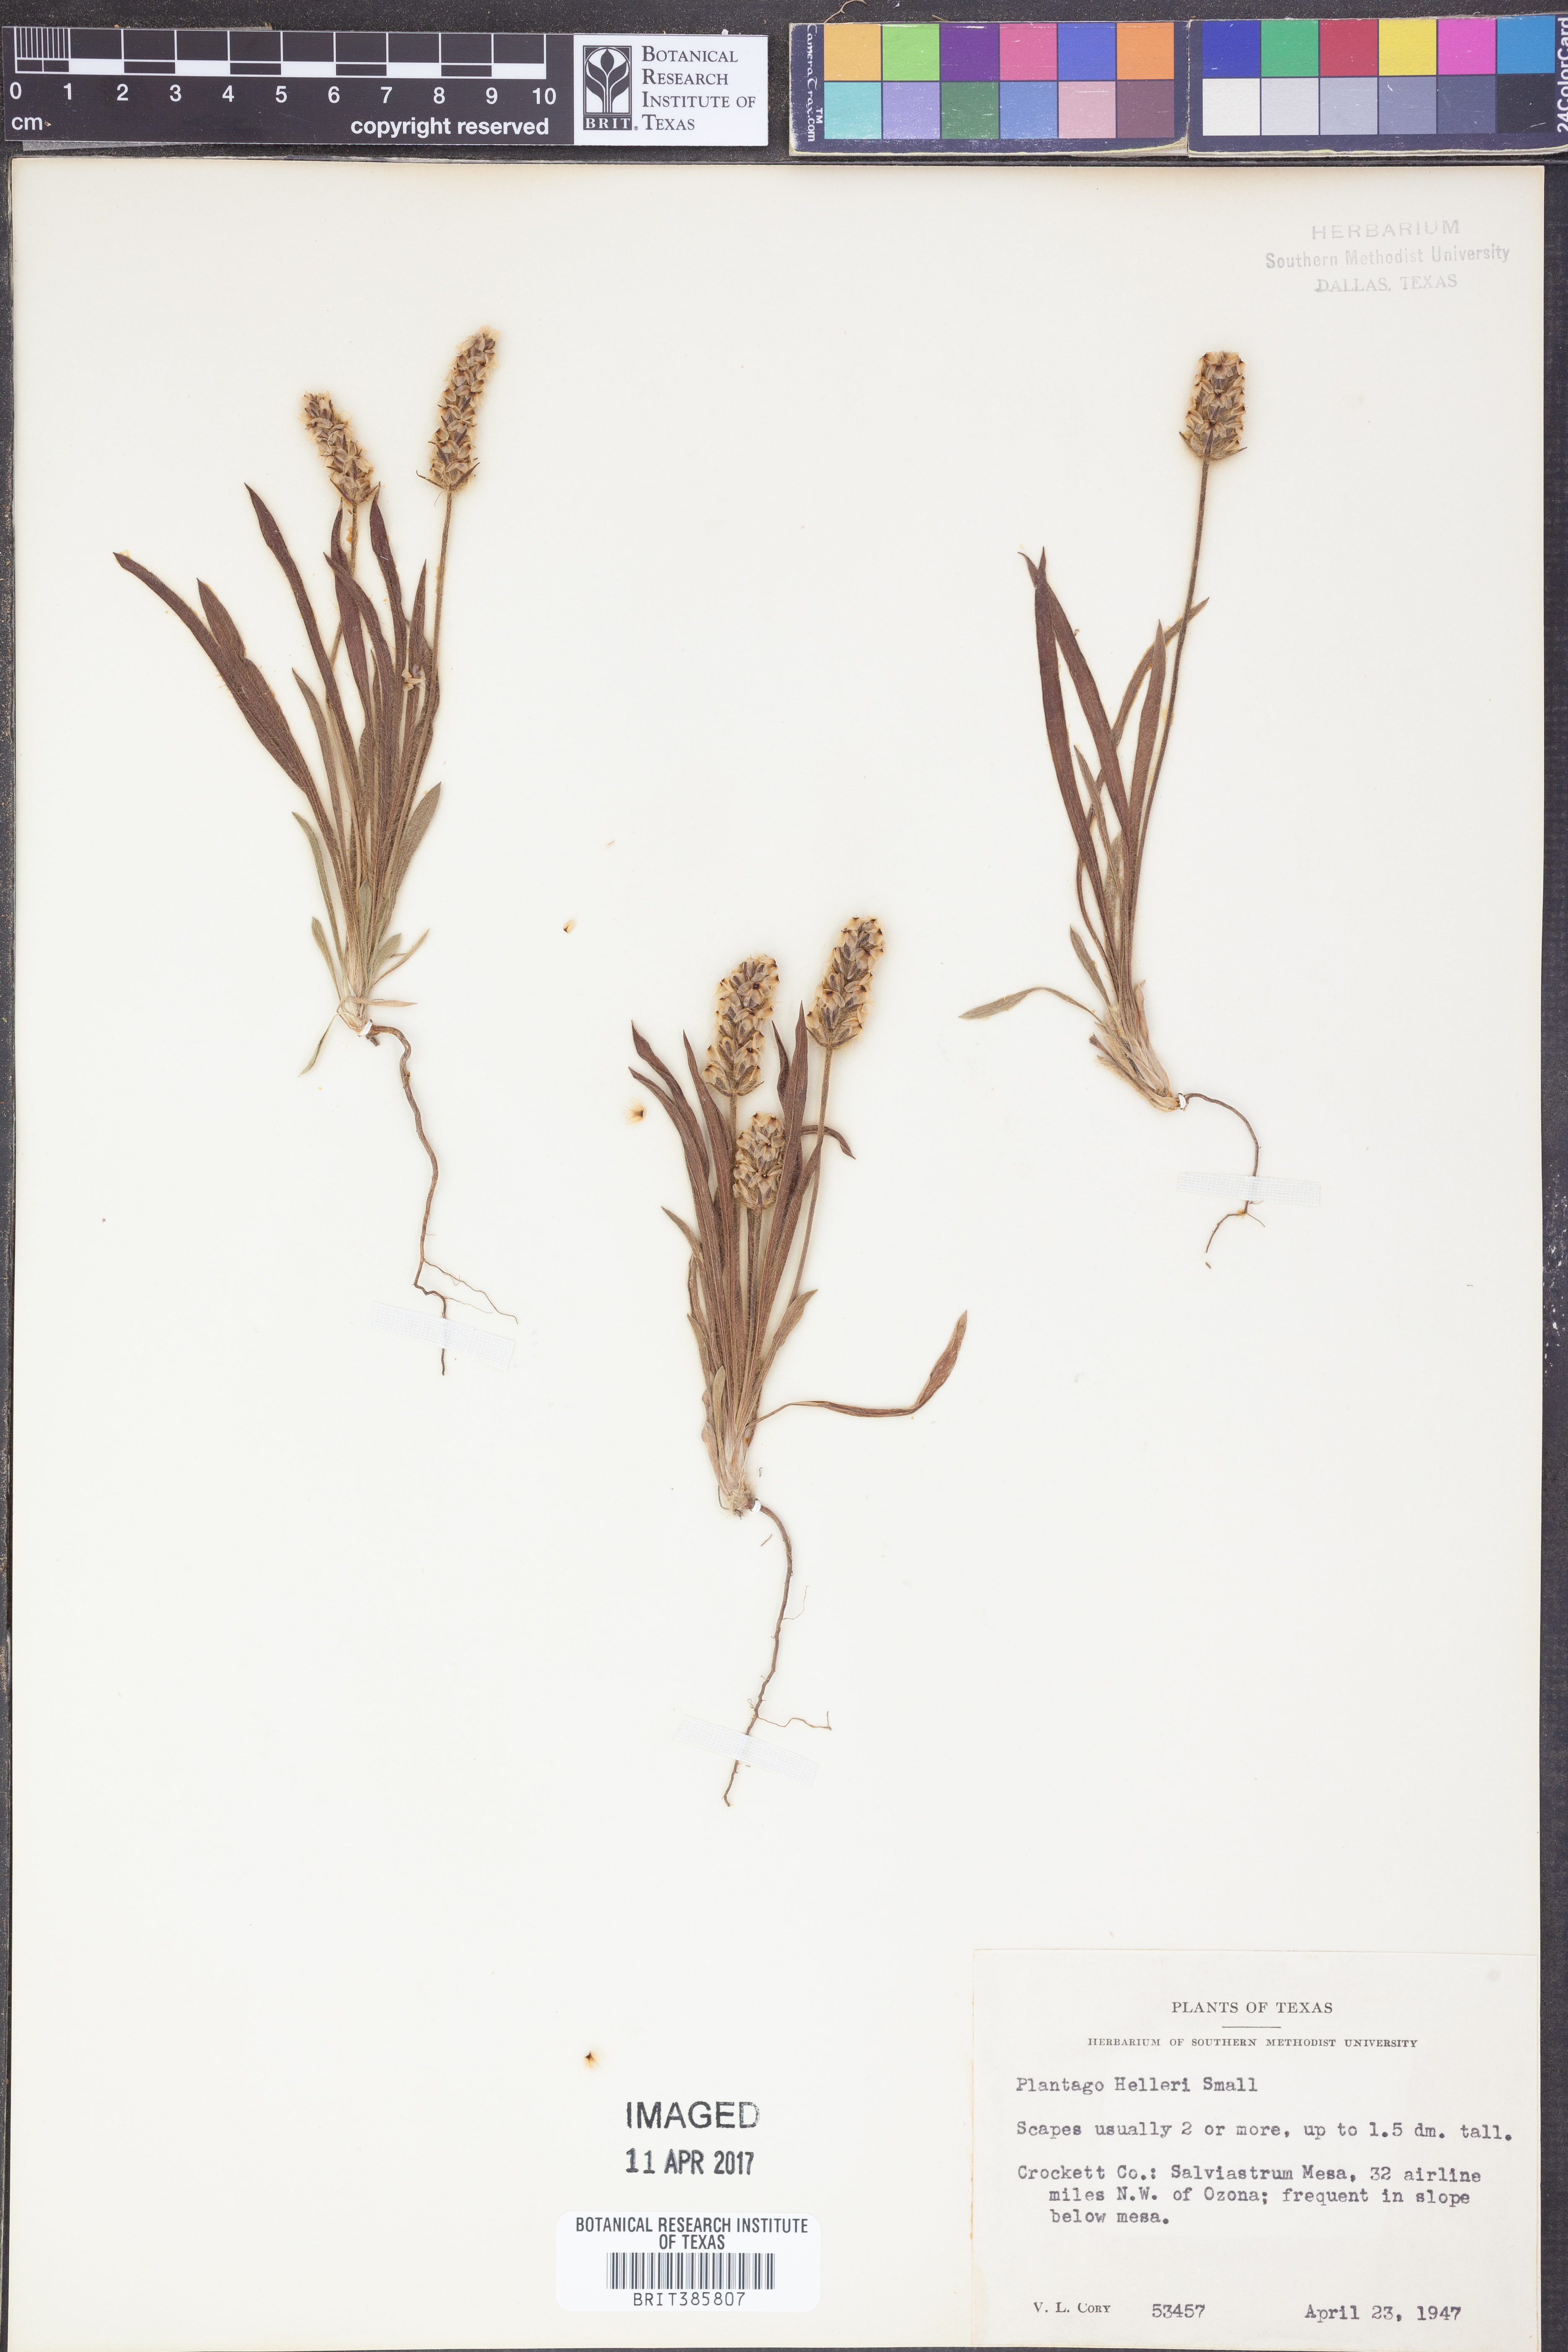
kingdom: Plantae
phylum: Tracheophyta
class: Magnoliopsida
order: Lamiales
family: Plantaginaceae
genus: Plantago
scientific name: Plantago helleri
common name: Heller's plantain
